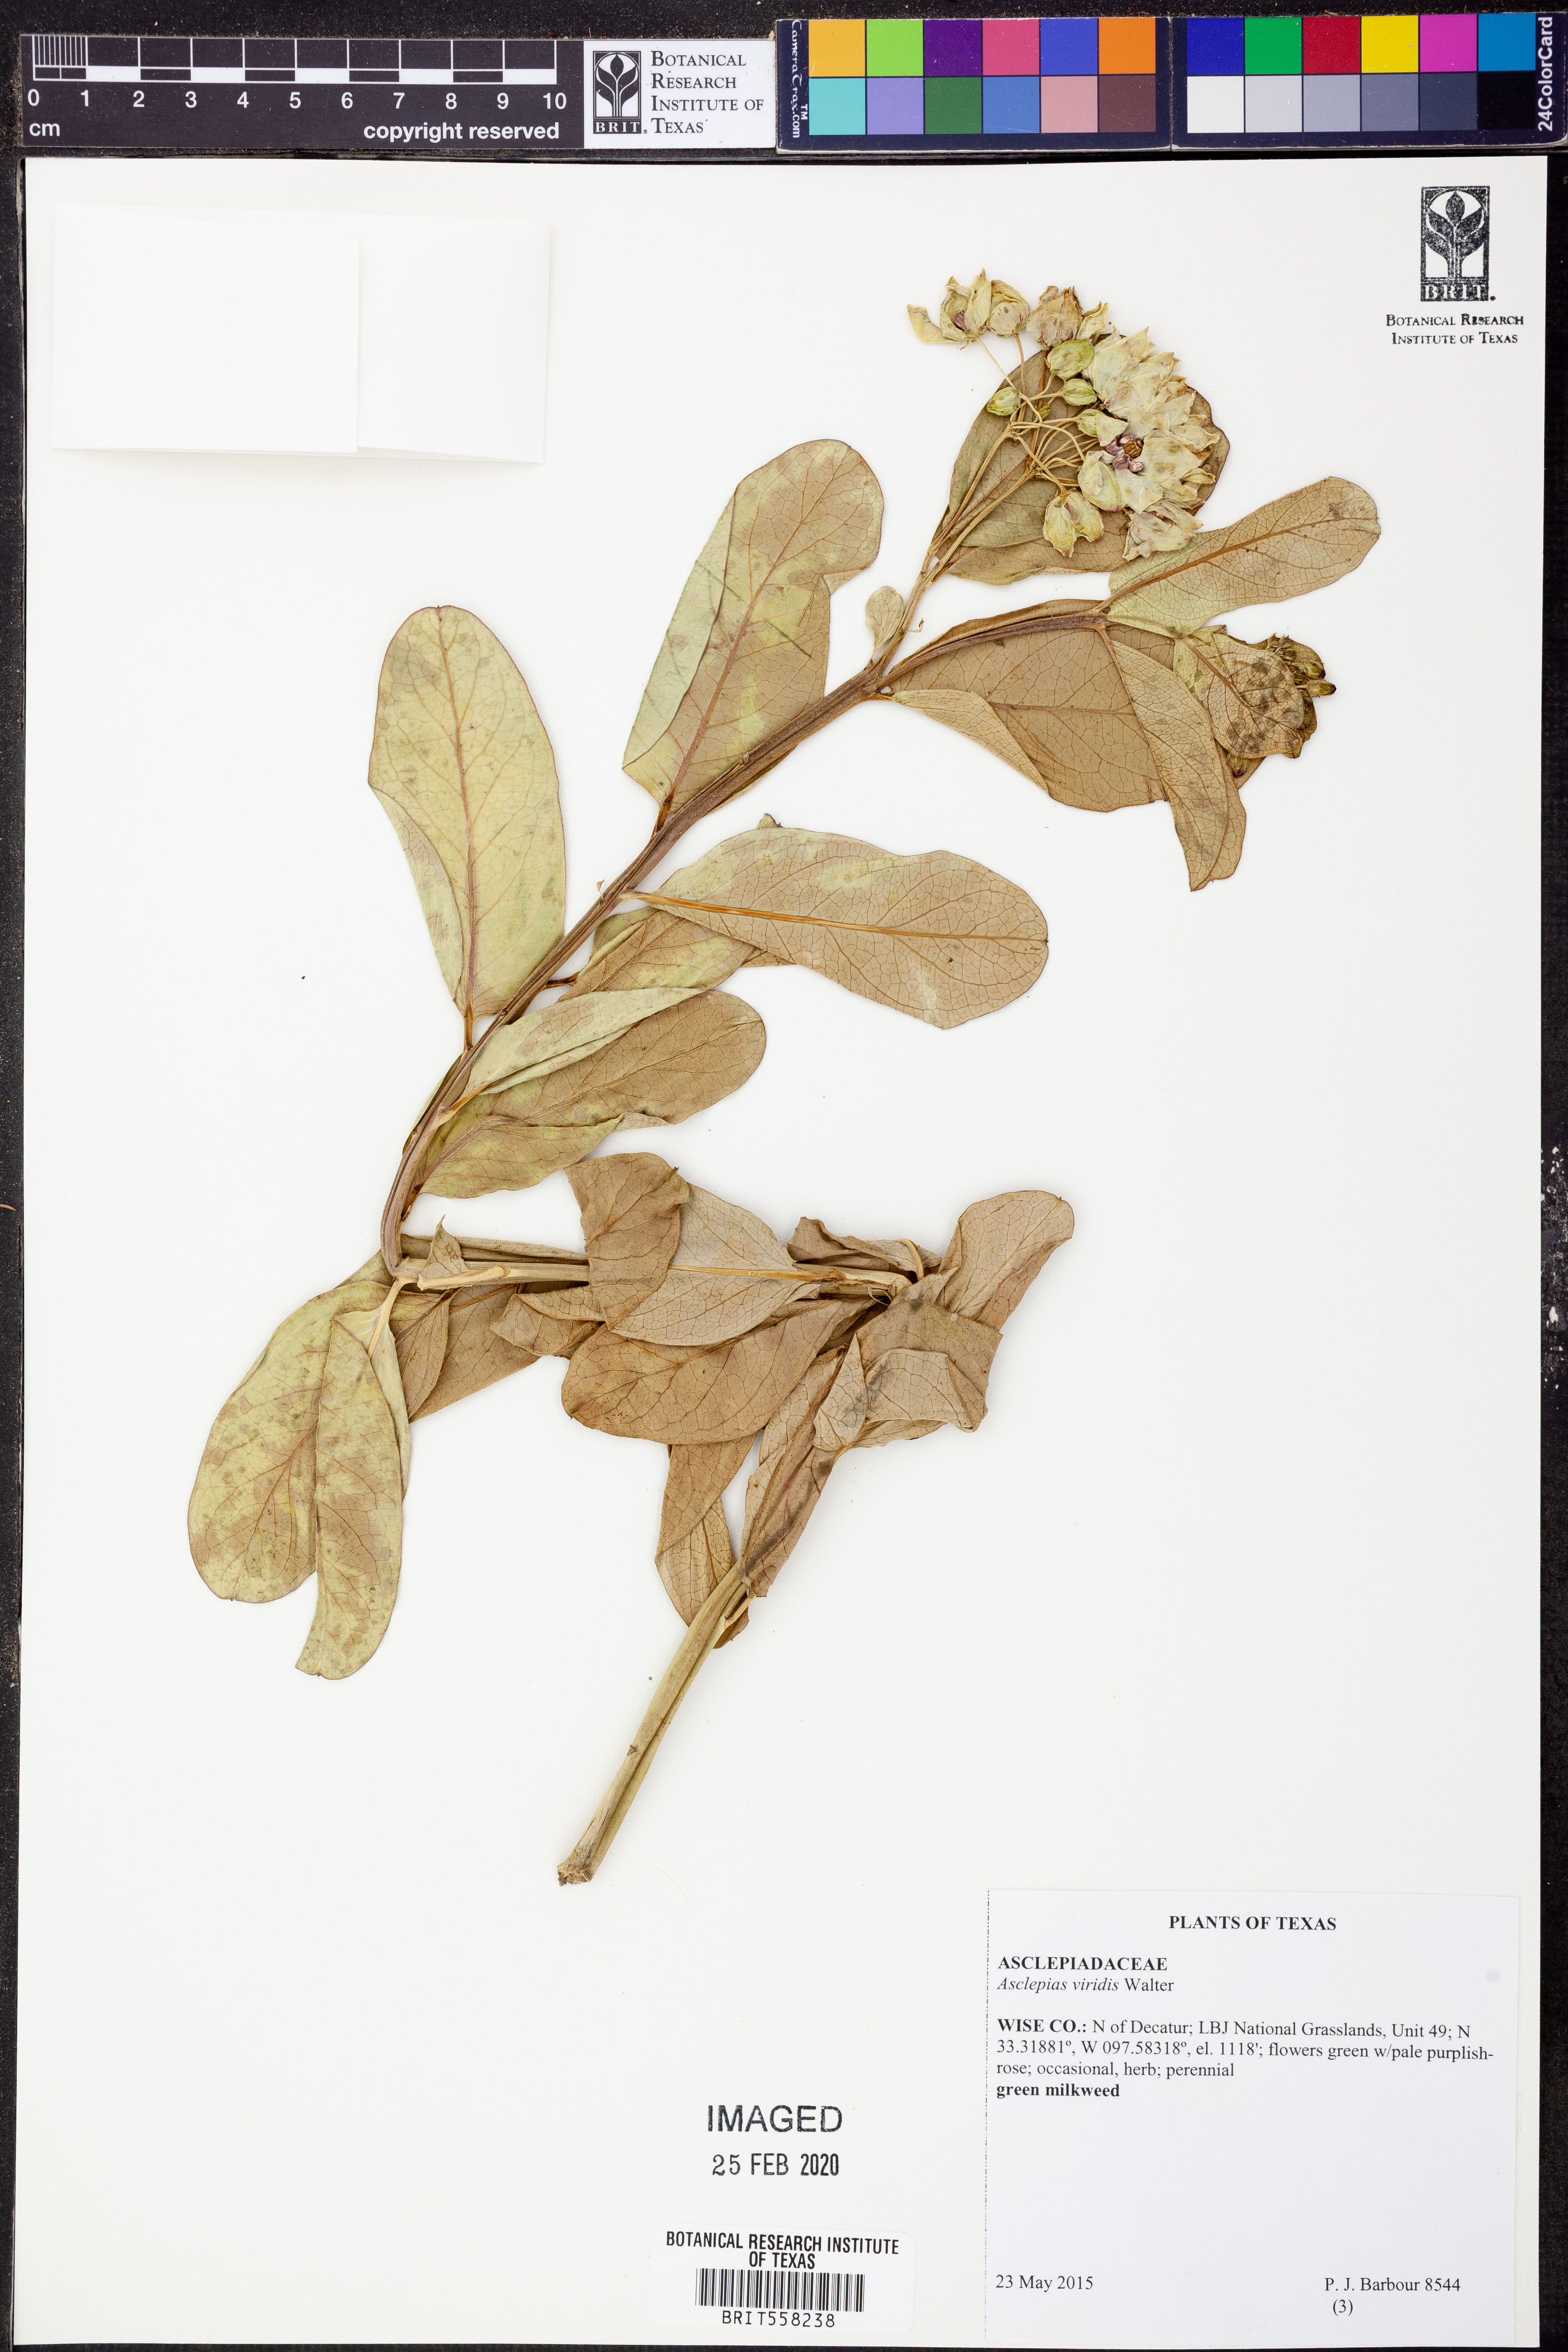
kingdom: Plantae
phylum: Tracheophyta
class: Magnoliopsida
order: Gentianales
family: Apocynaceae
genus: Asclepias
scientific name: Asclepias viridis
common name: Antelope-horns
